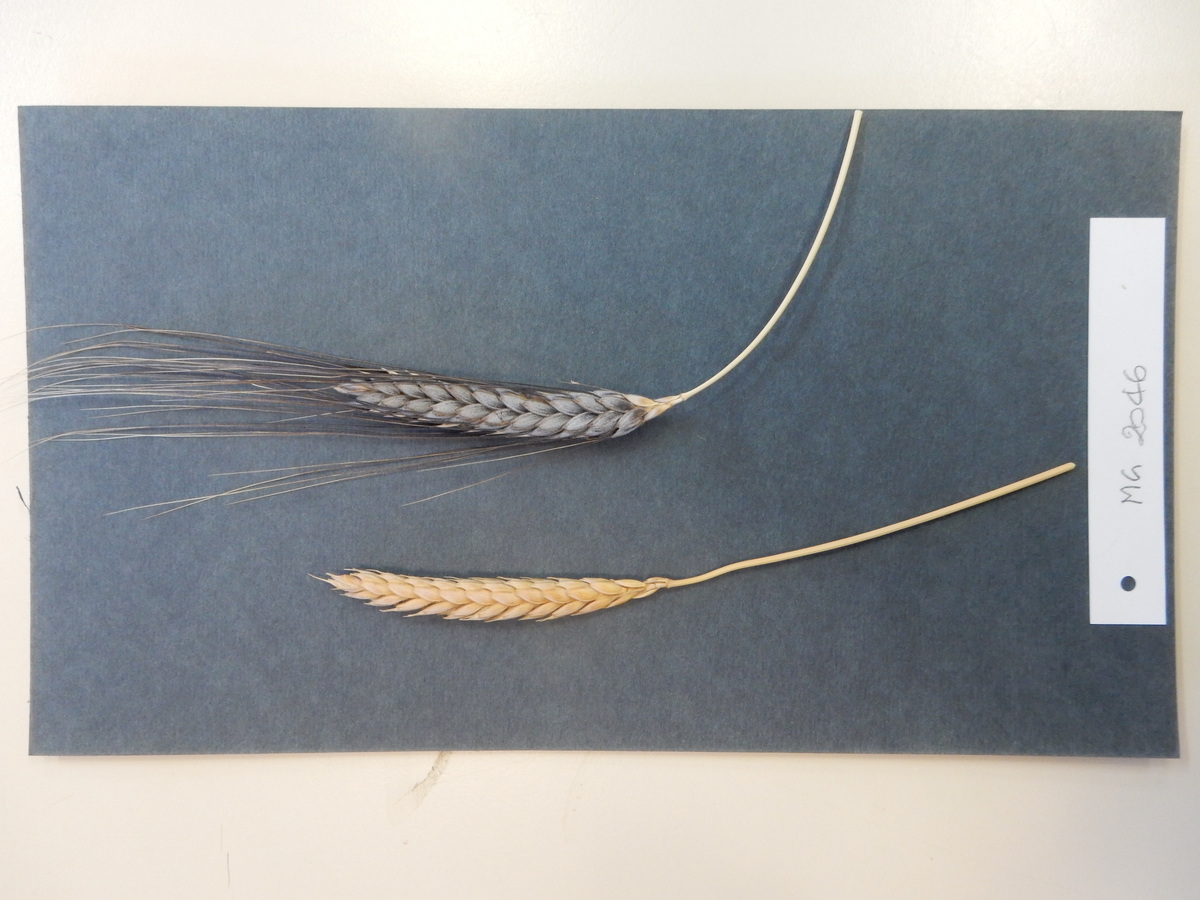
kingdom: Plantae
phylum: Tracheophyta
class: Liliopsida
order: Poales
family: Poaceae
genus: Triticum
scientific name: Triticum turgidum
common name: Wheat
